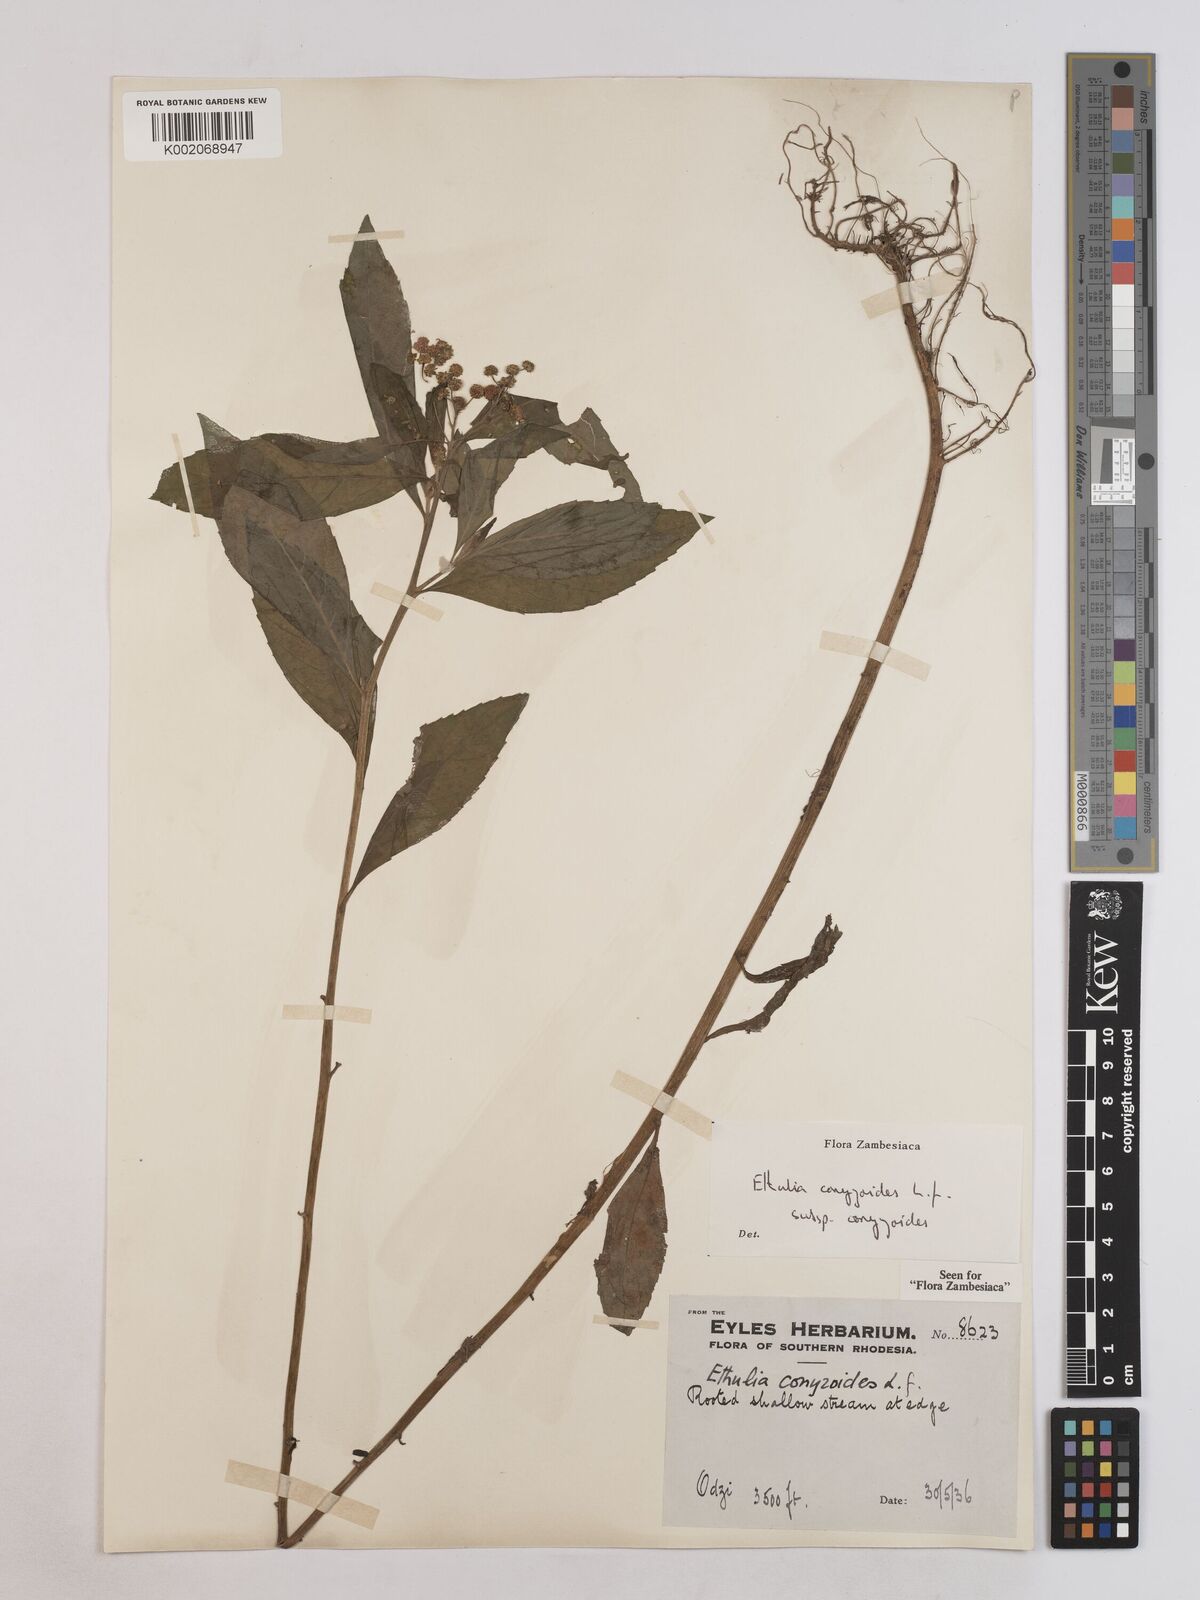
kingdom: Plantae
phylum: Tracheophyta
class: Magnoliopsida
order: Asterales
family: Asteraceae
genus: Ethulia
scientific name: Ethulia conyzoides
